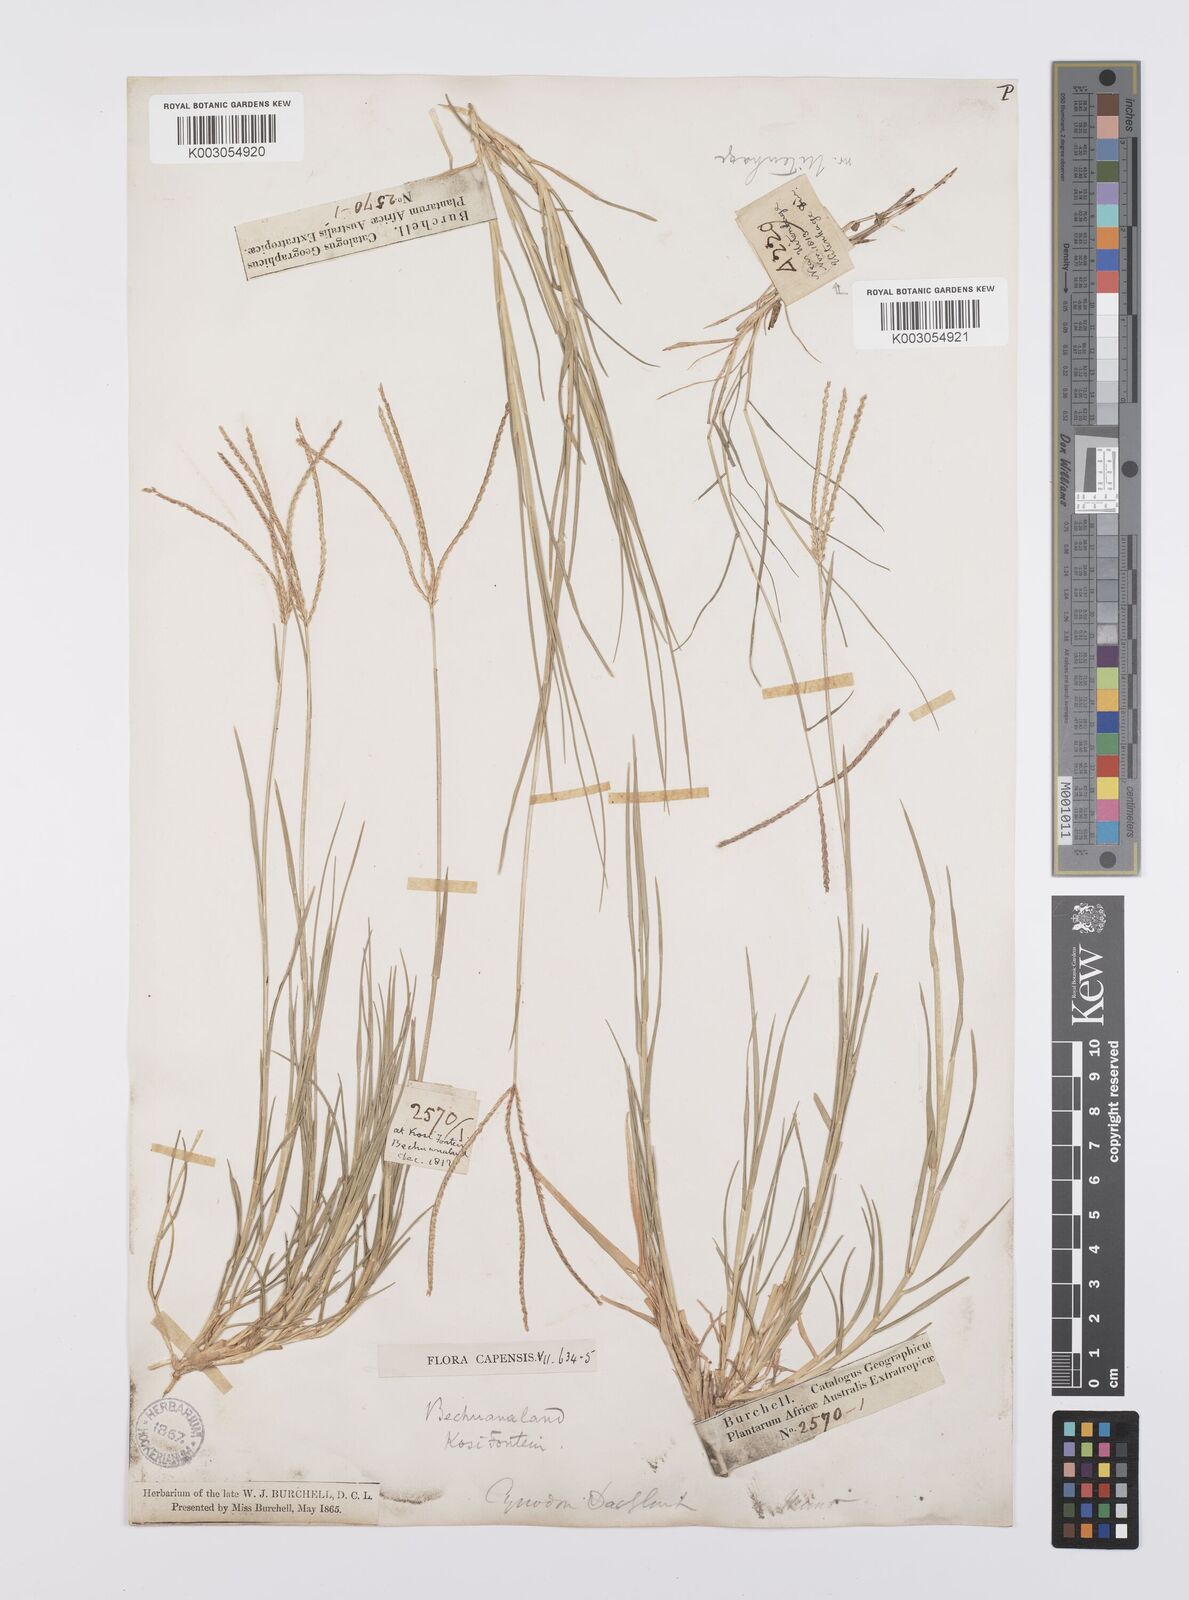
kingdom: Plantae
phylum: Tracheophyta
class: Liliopsida
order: Poales
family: Poaceae
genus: Cynodon
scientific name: Cynodon dactylon
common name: Bermuda grass
